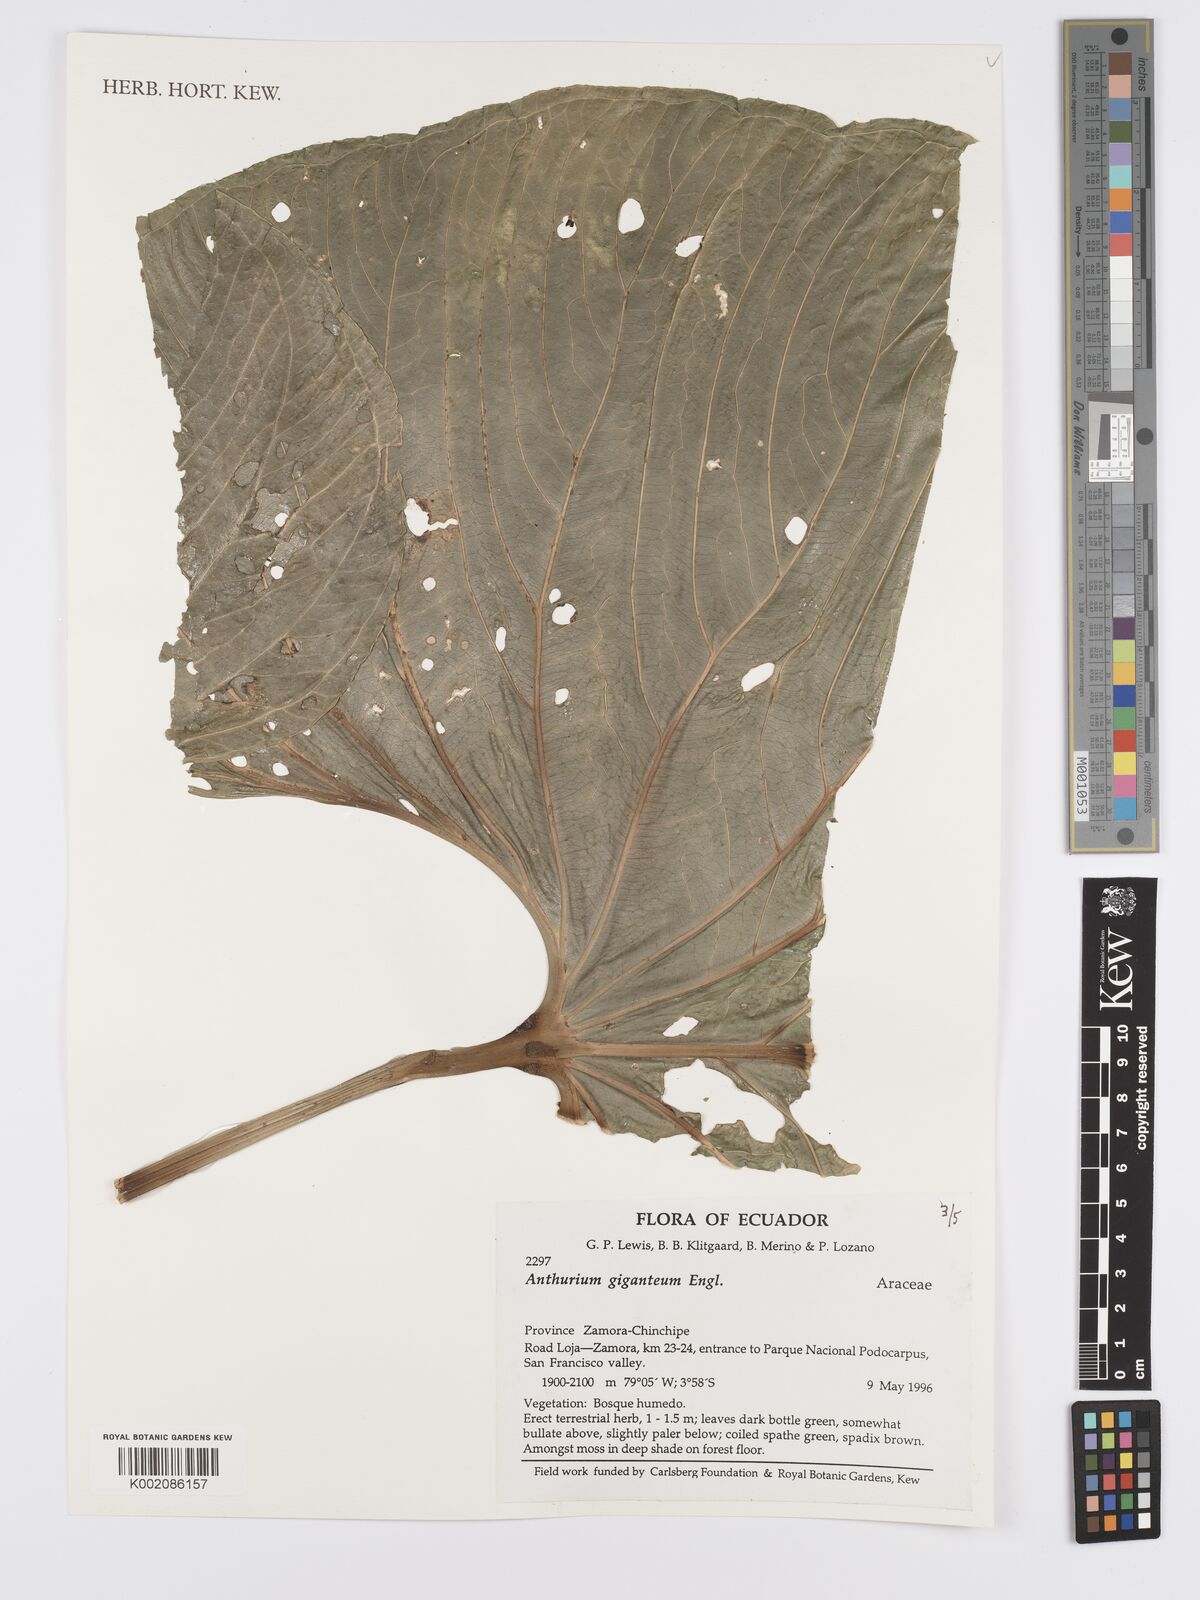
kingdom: Plantae
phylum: Tracheophyta
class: Liliopsida
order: Alismatales
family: Araceae
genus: Anthurium
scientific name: Anthurium giganteum
